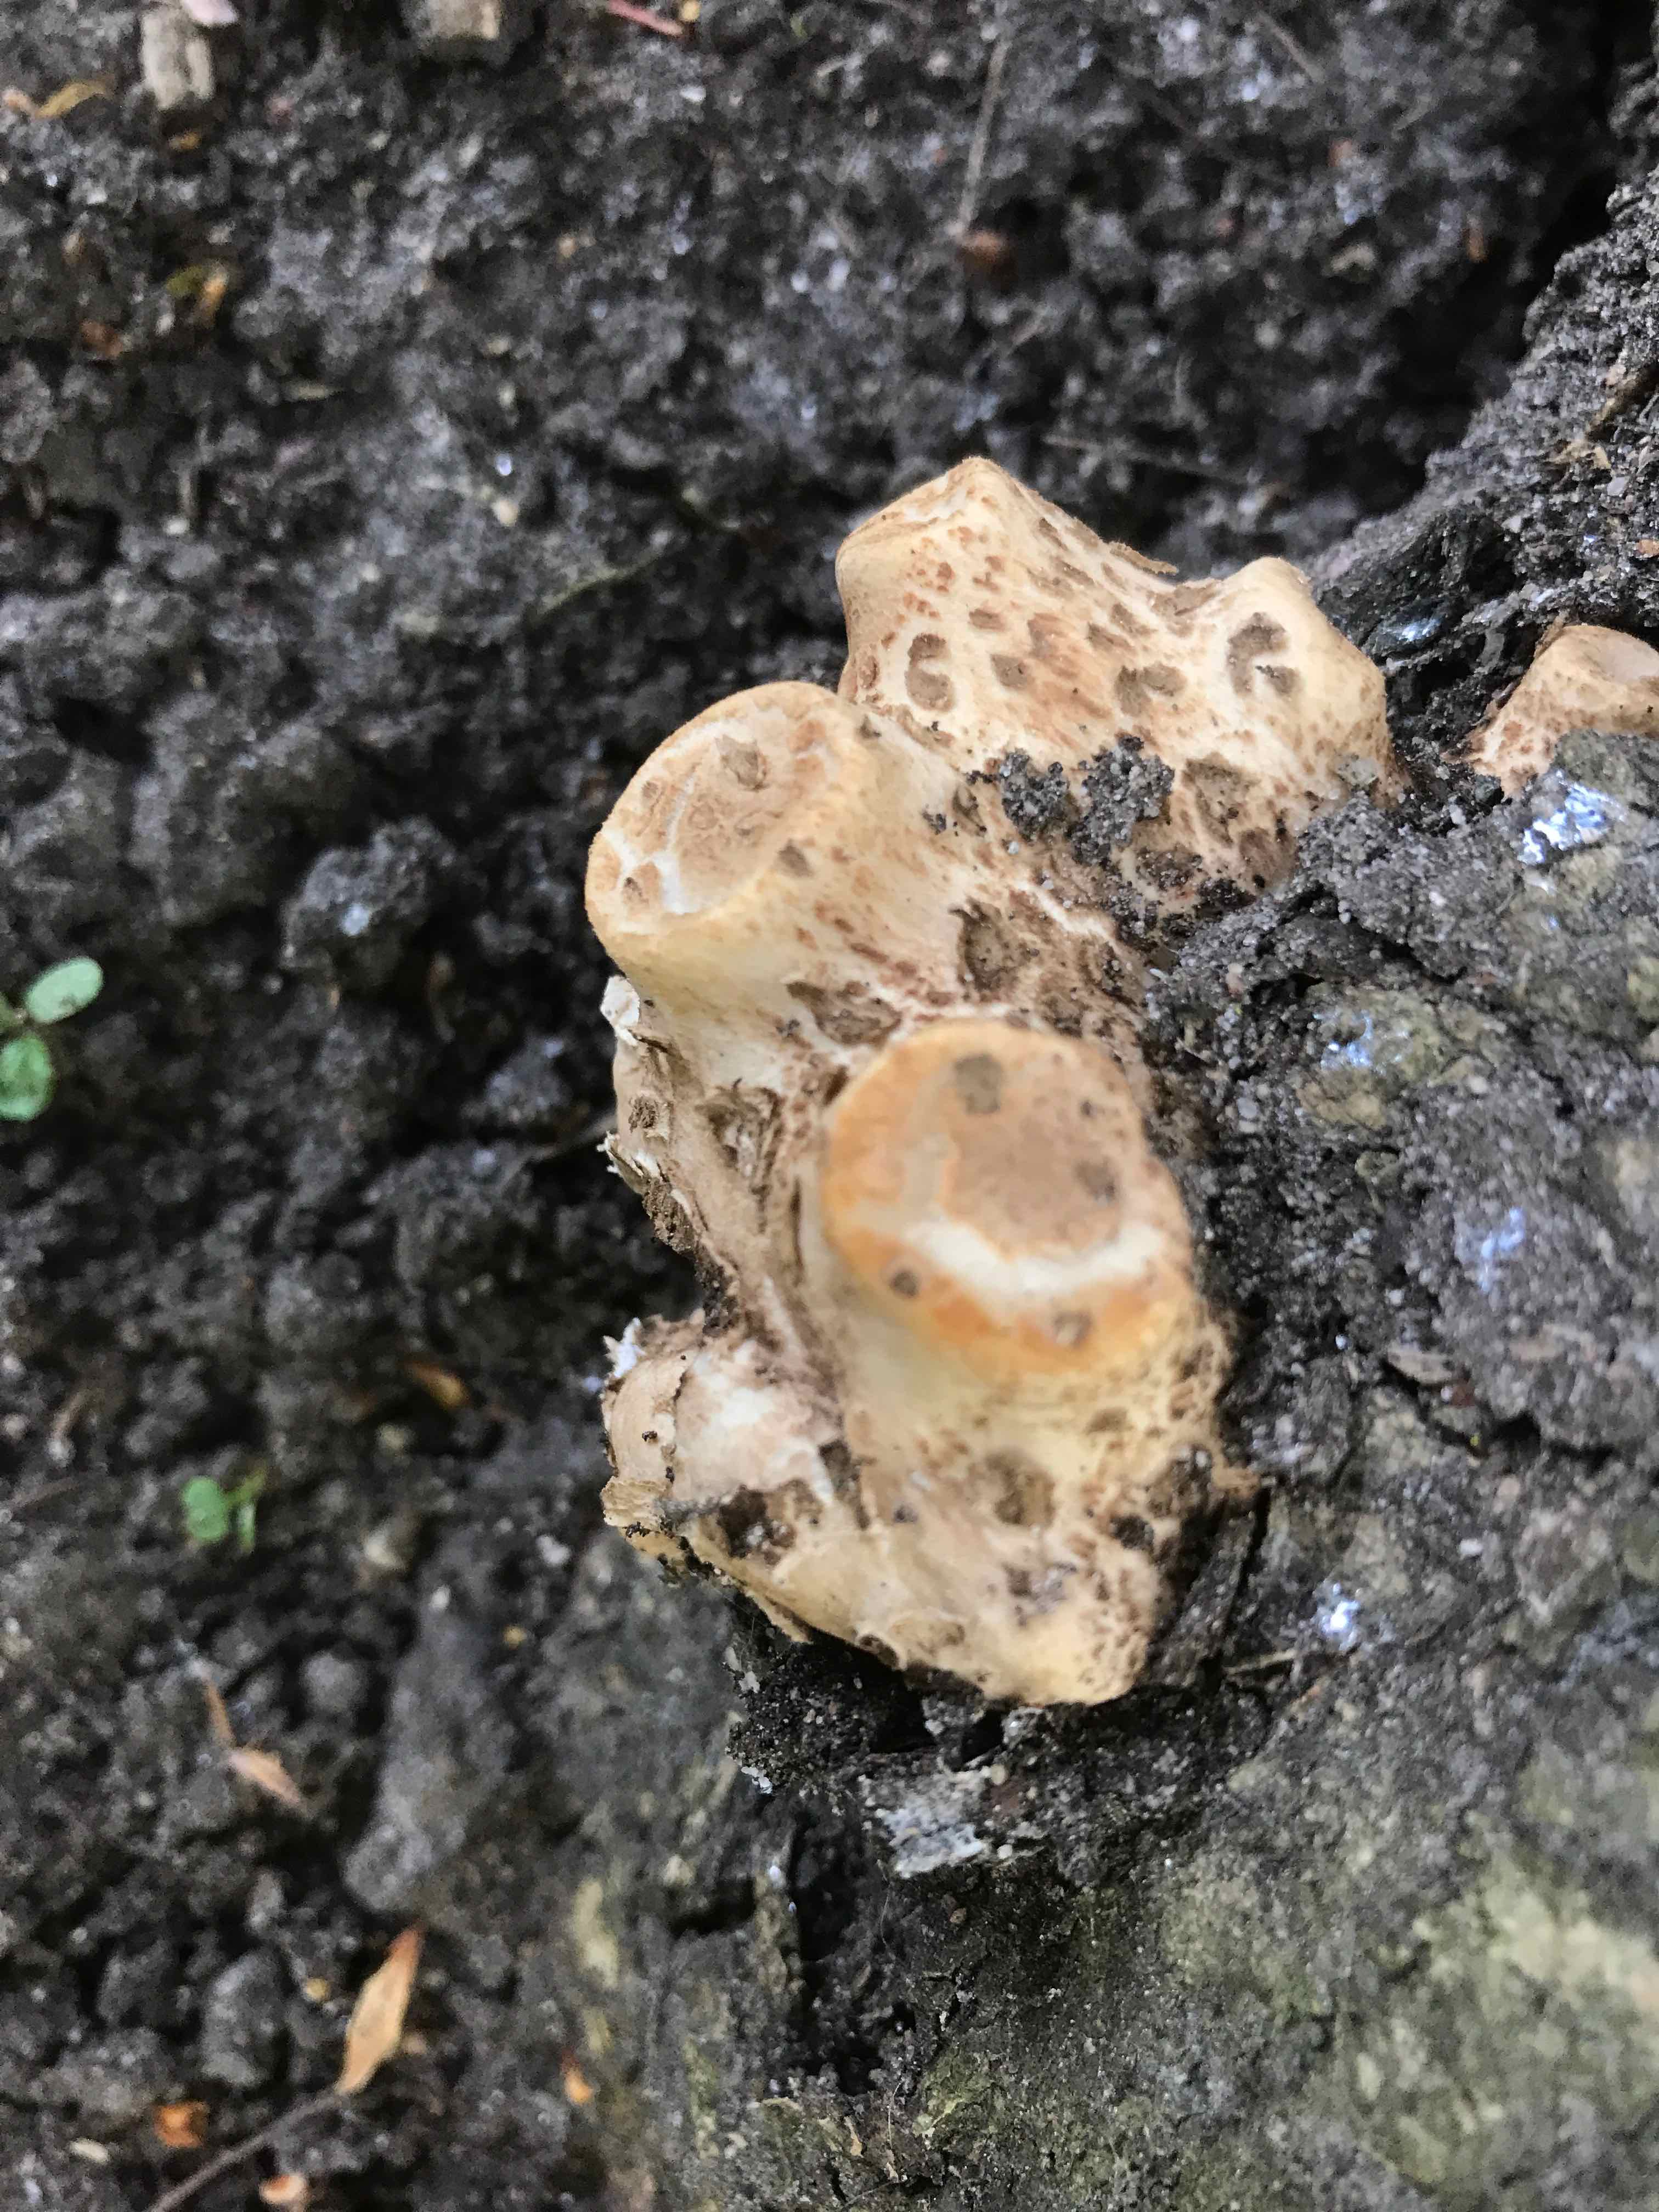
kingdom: Fungi
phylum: Basidiomycota
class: Agaricomycetes
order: Polyporales
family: Polyporaceae
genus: Cerioporus
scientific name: Cerioporus squamosus
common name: skællet stilkporesvamp
